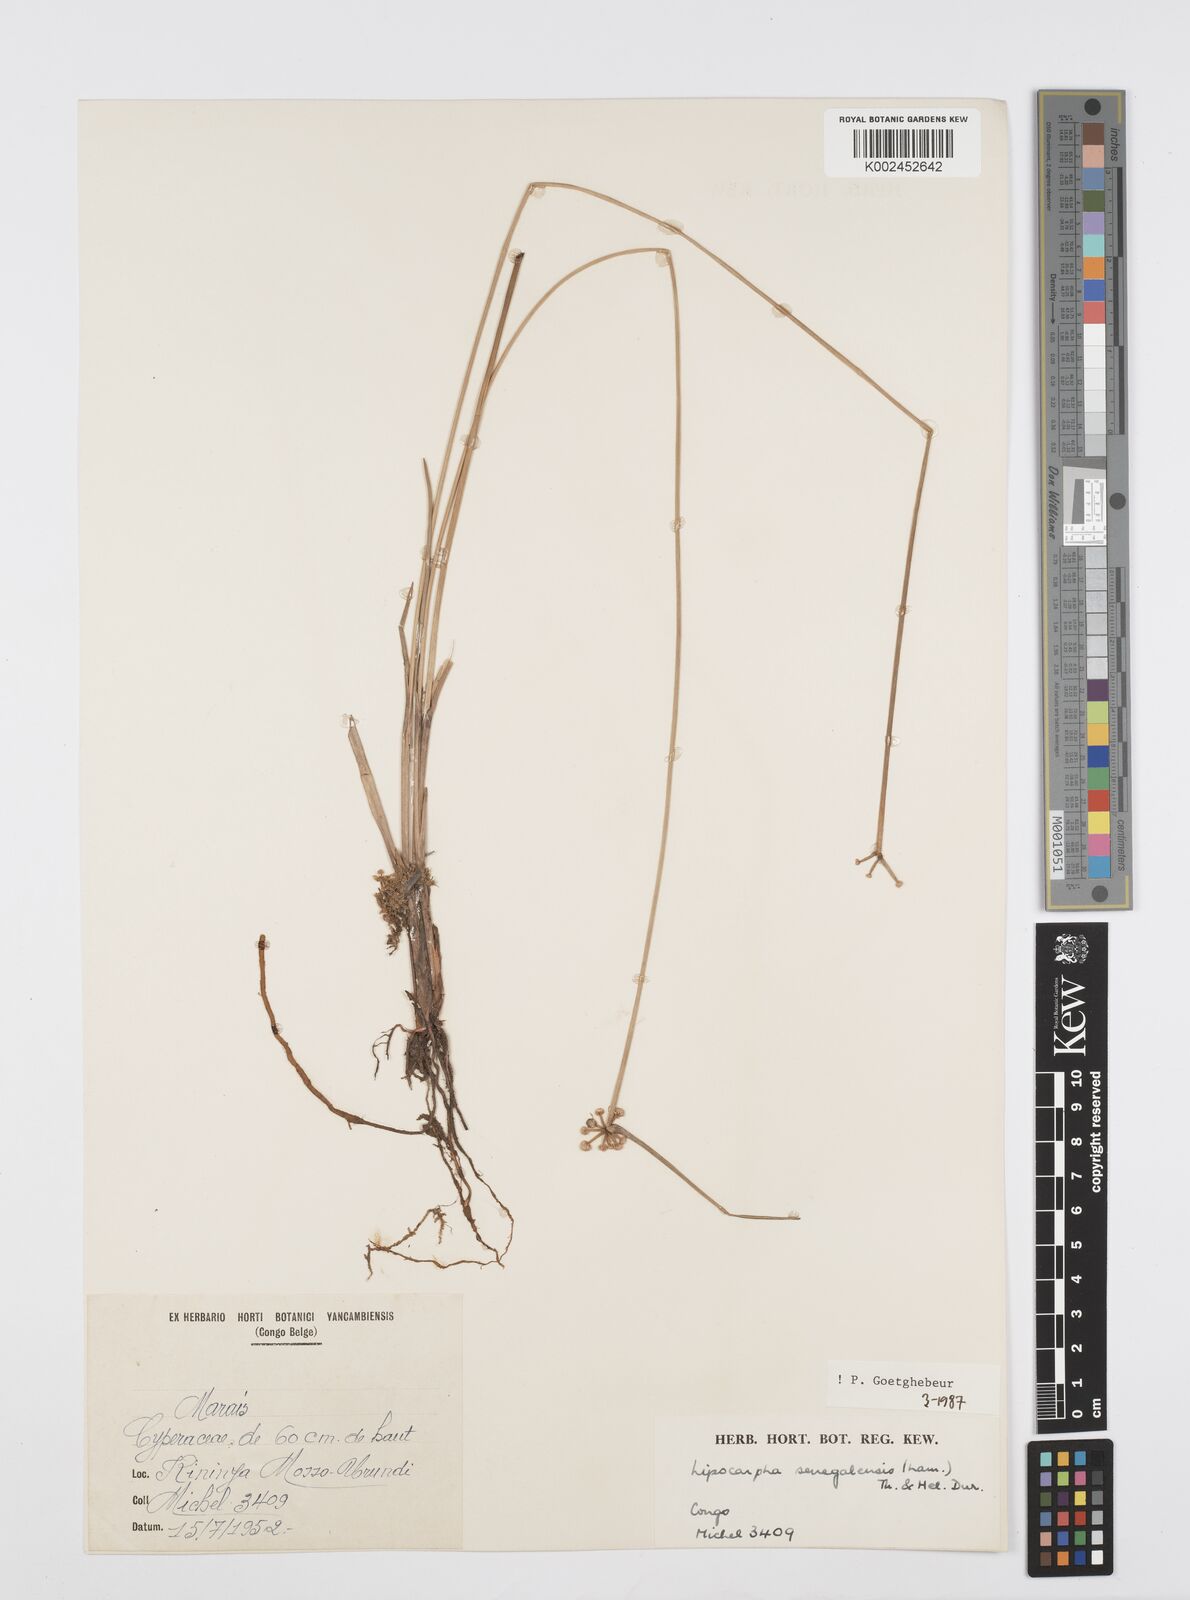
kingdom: Plantae
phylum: Tracheophyta
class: Liliopsida
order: Poales
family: Cyperaceae
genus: Cyperus
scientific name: Cyperus albescens
